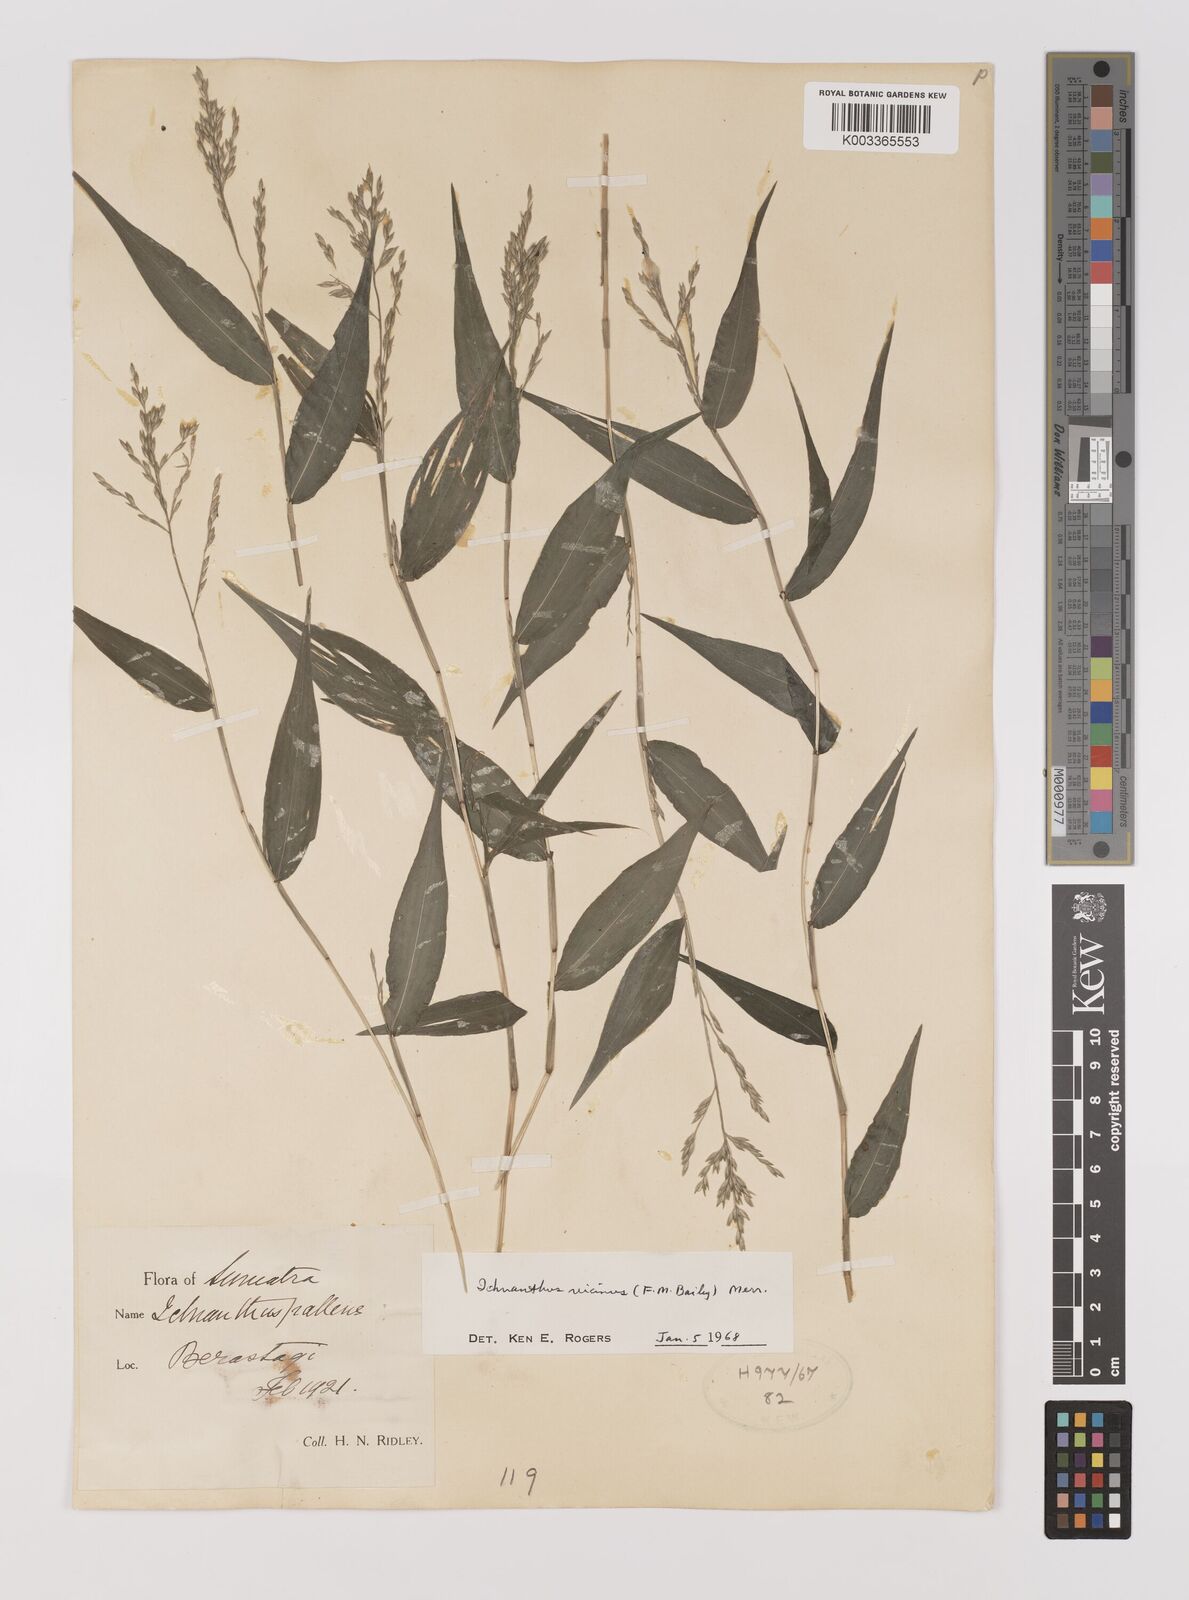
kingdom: Plantae
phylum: Tracheophyta
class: Liliopsida
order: Poales
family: Poaceae
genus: Ichnanthus
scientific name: Ichnanthus pallens
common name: Water grass
